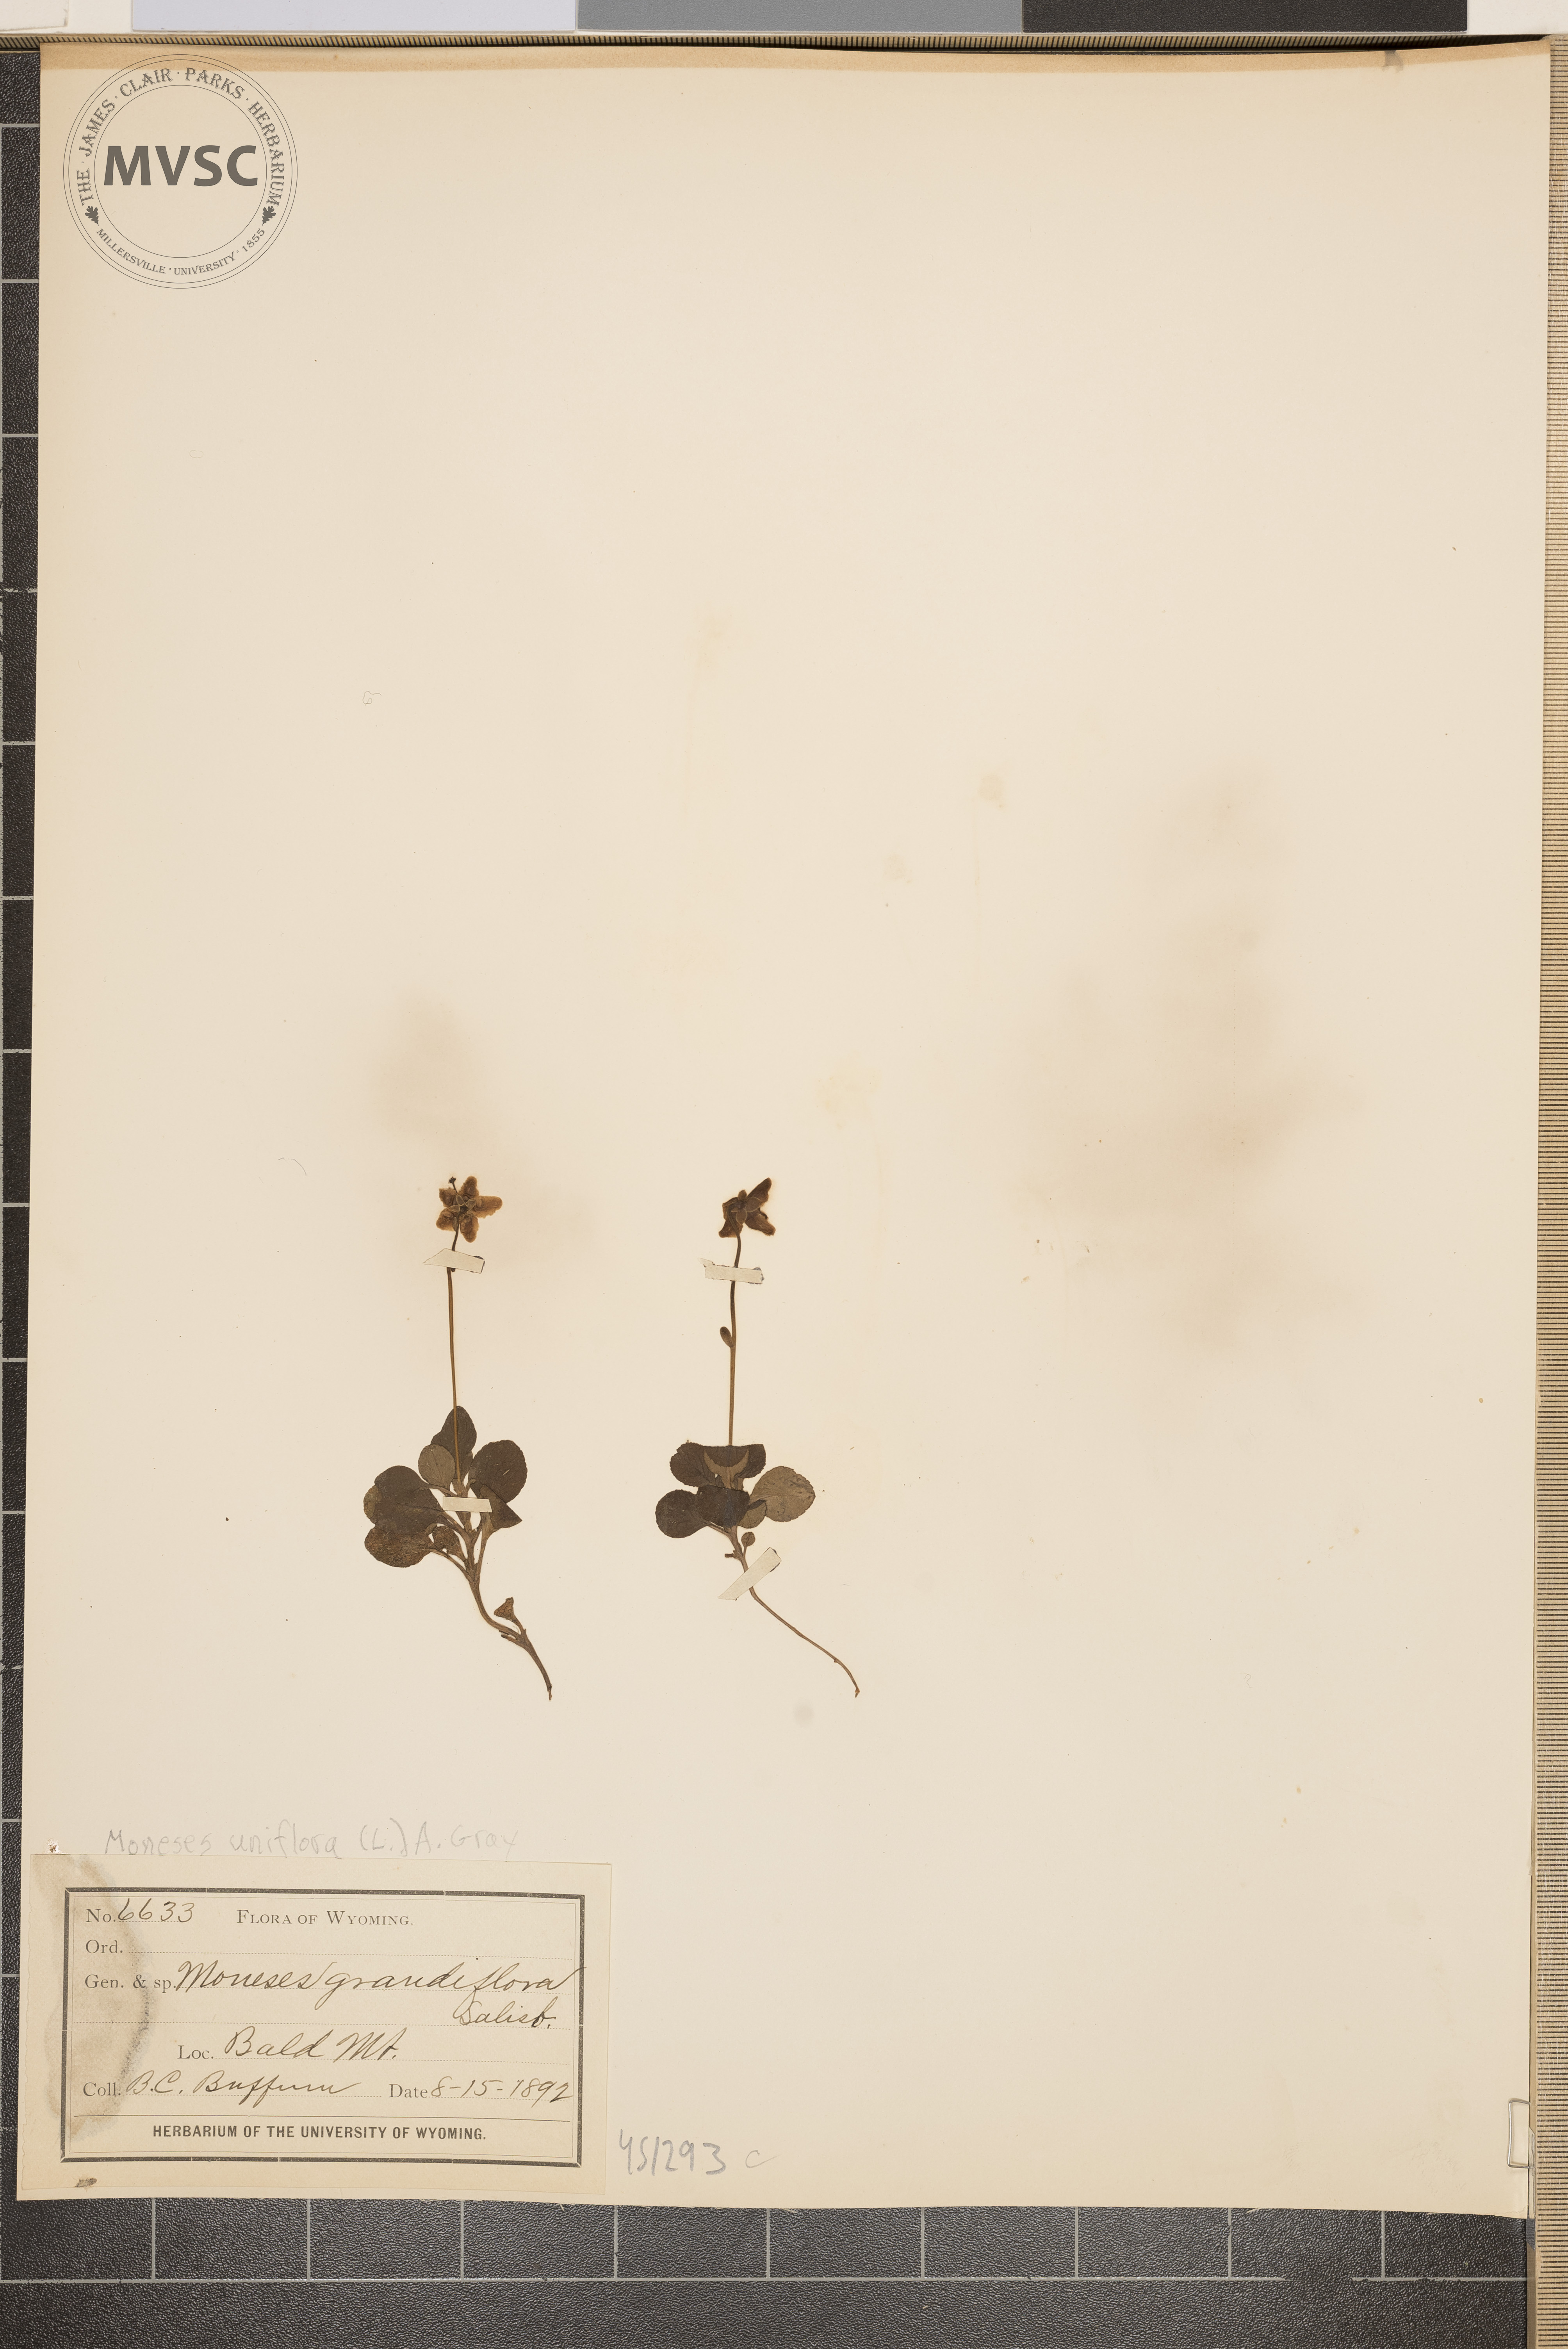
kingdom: Plantae
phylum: Tracheophyta
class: Magnoliopsida
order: Ericales
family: Ericaceae
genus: Moneses
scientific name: Moneses uniflora
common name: One-flowered wintergreen
